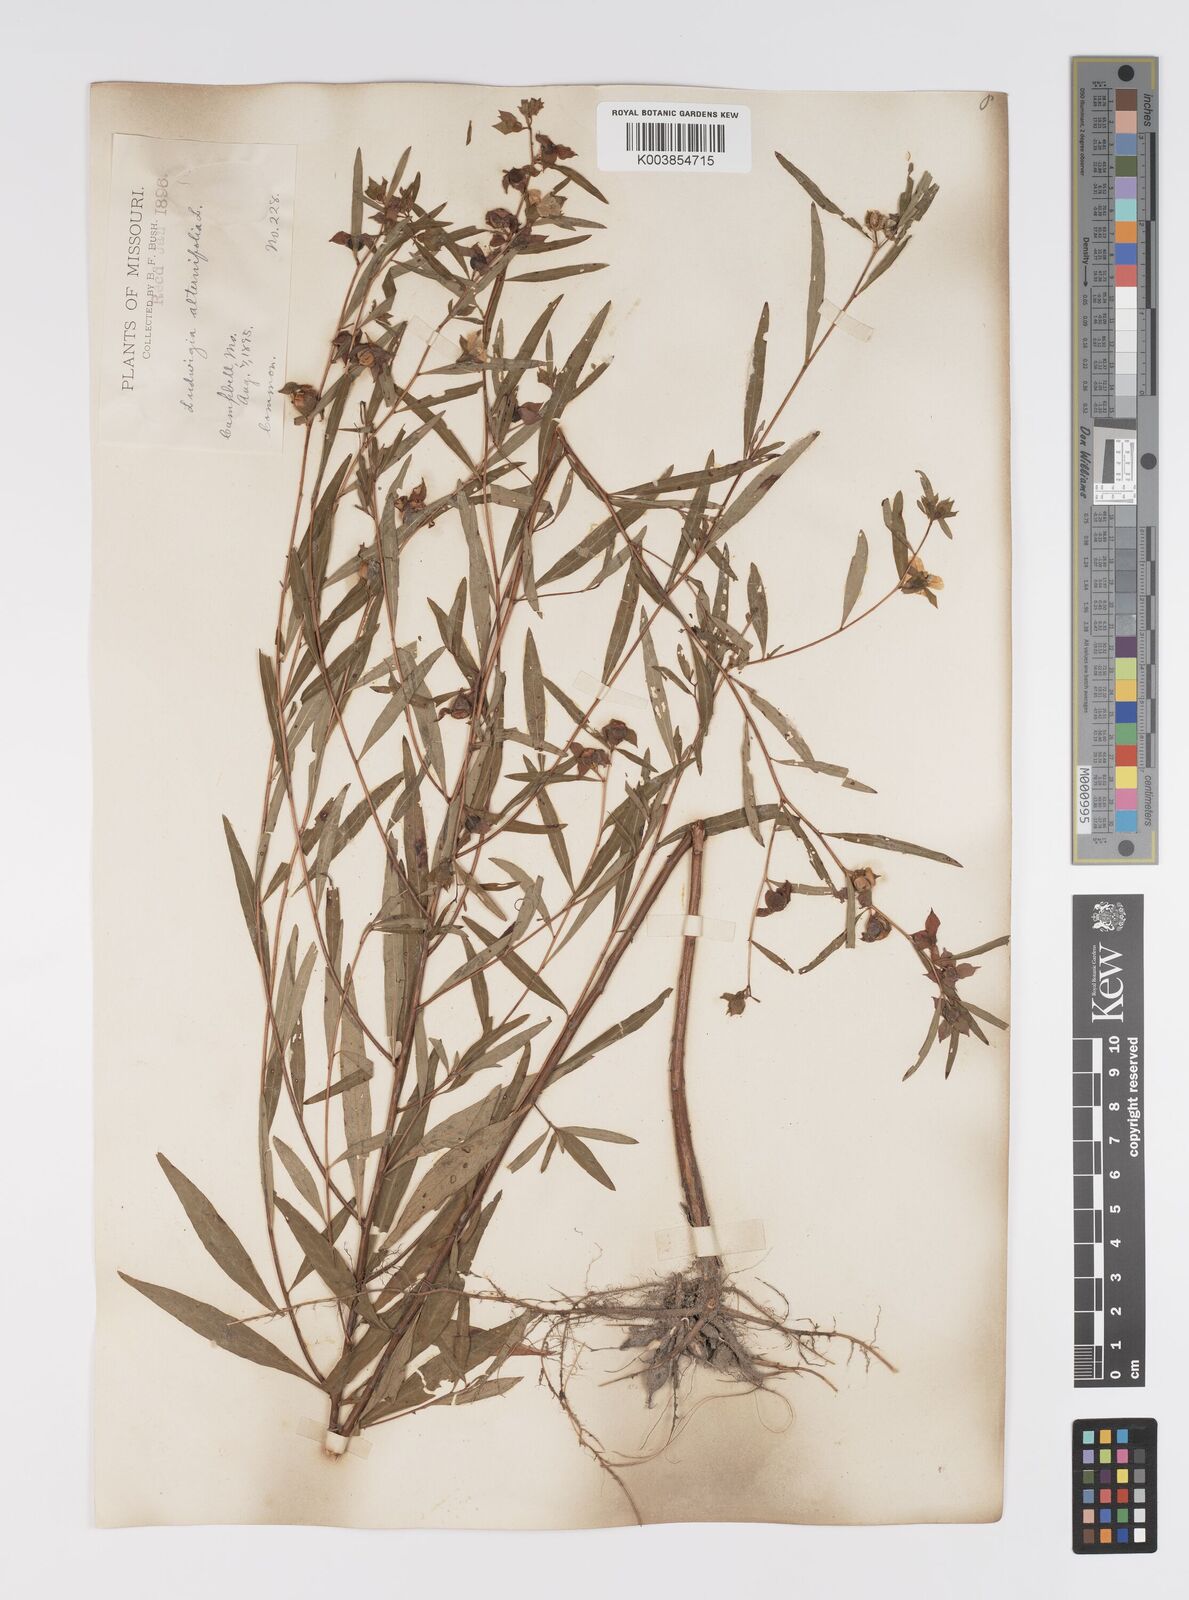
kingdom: Plantae
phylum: Tracheophyta
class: Magnoliopsida
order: Myrtales
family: Onagraceae
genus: Ludwigia
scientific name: Ludwigia alternifolia
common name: Rattlebox
